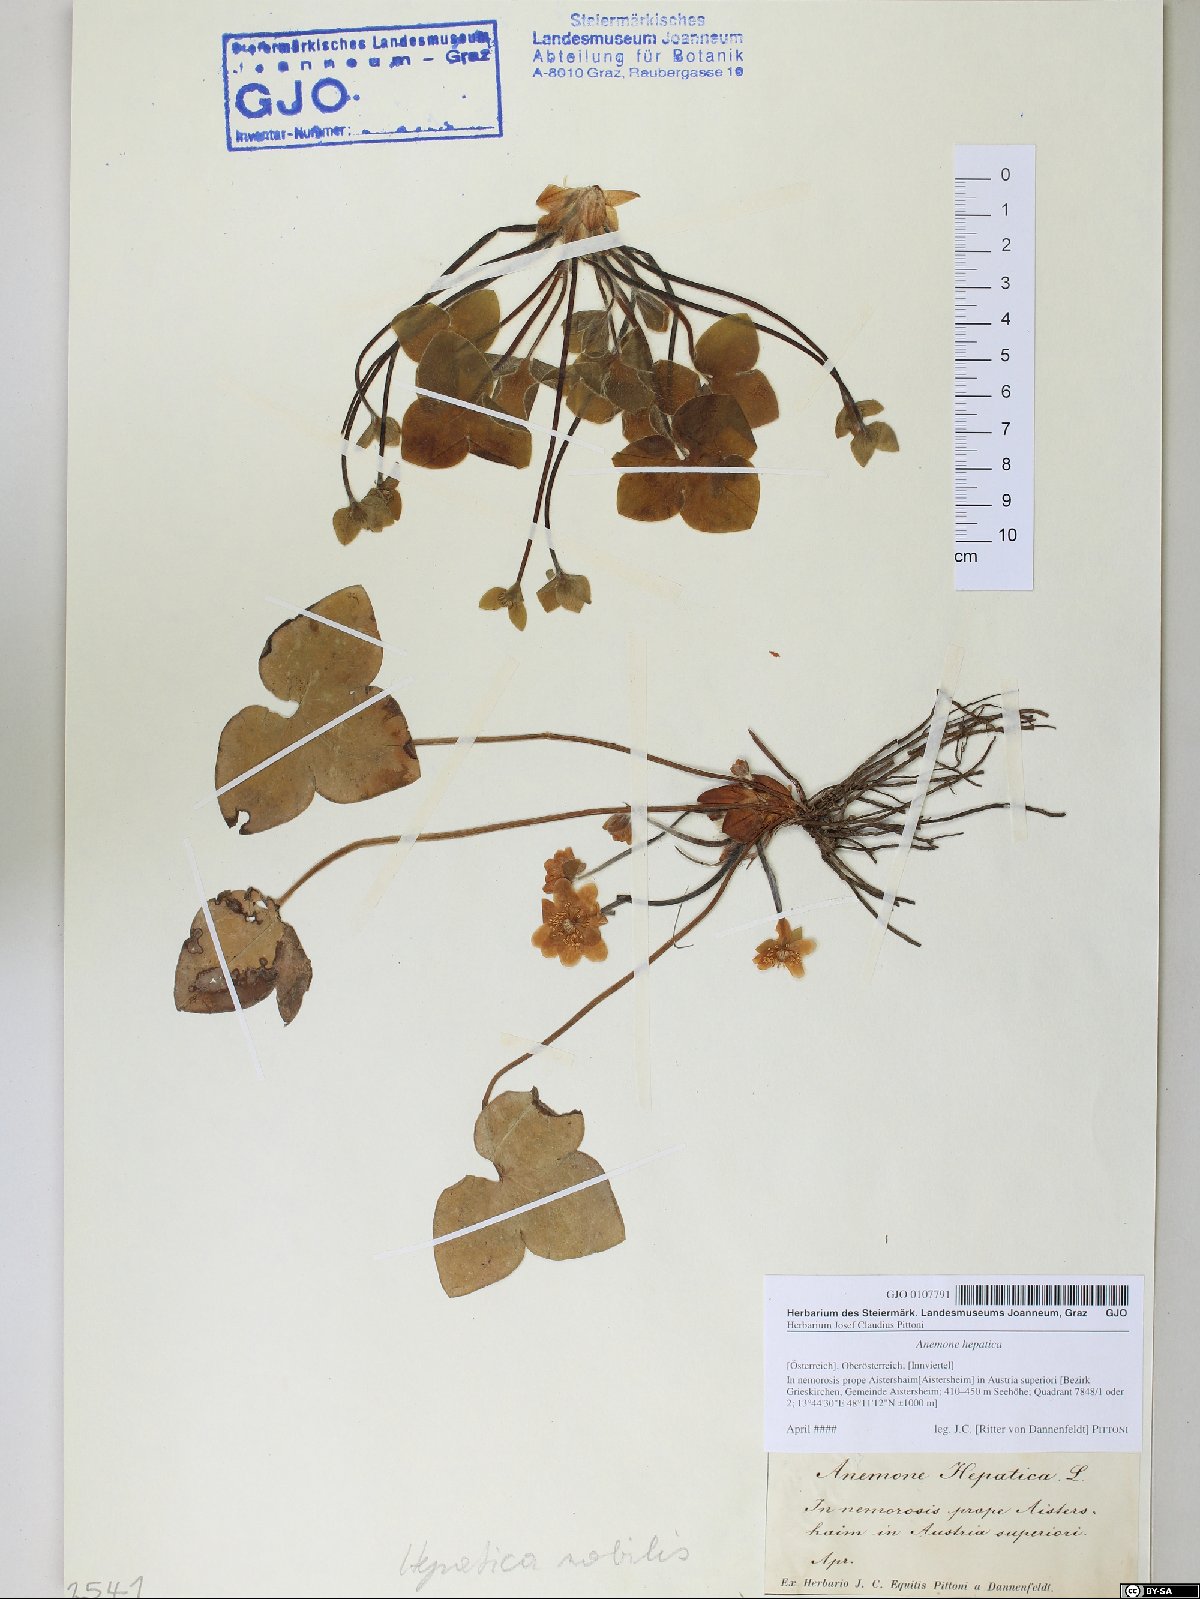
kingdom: Plantae
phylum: Tracheophyta
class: Magnoliopsida
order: Ranunculales
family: Ranunculaceae
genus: Hepatica
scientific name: Hepatica nobilis
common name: Liverleaf
